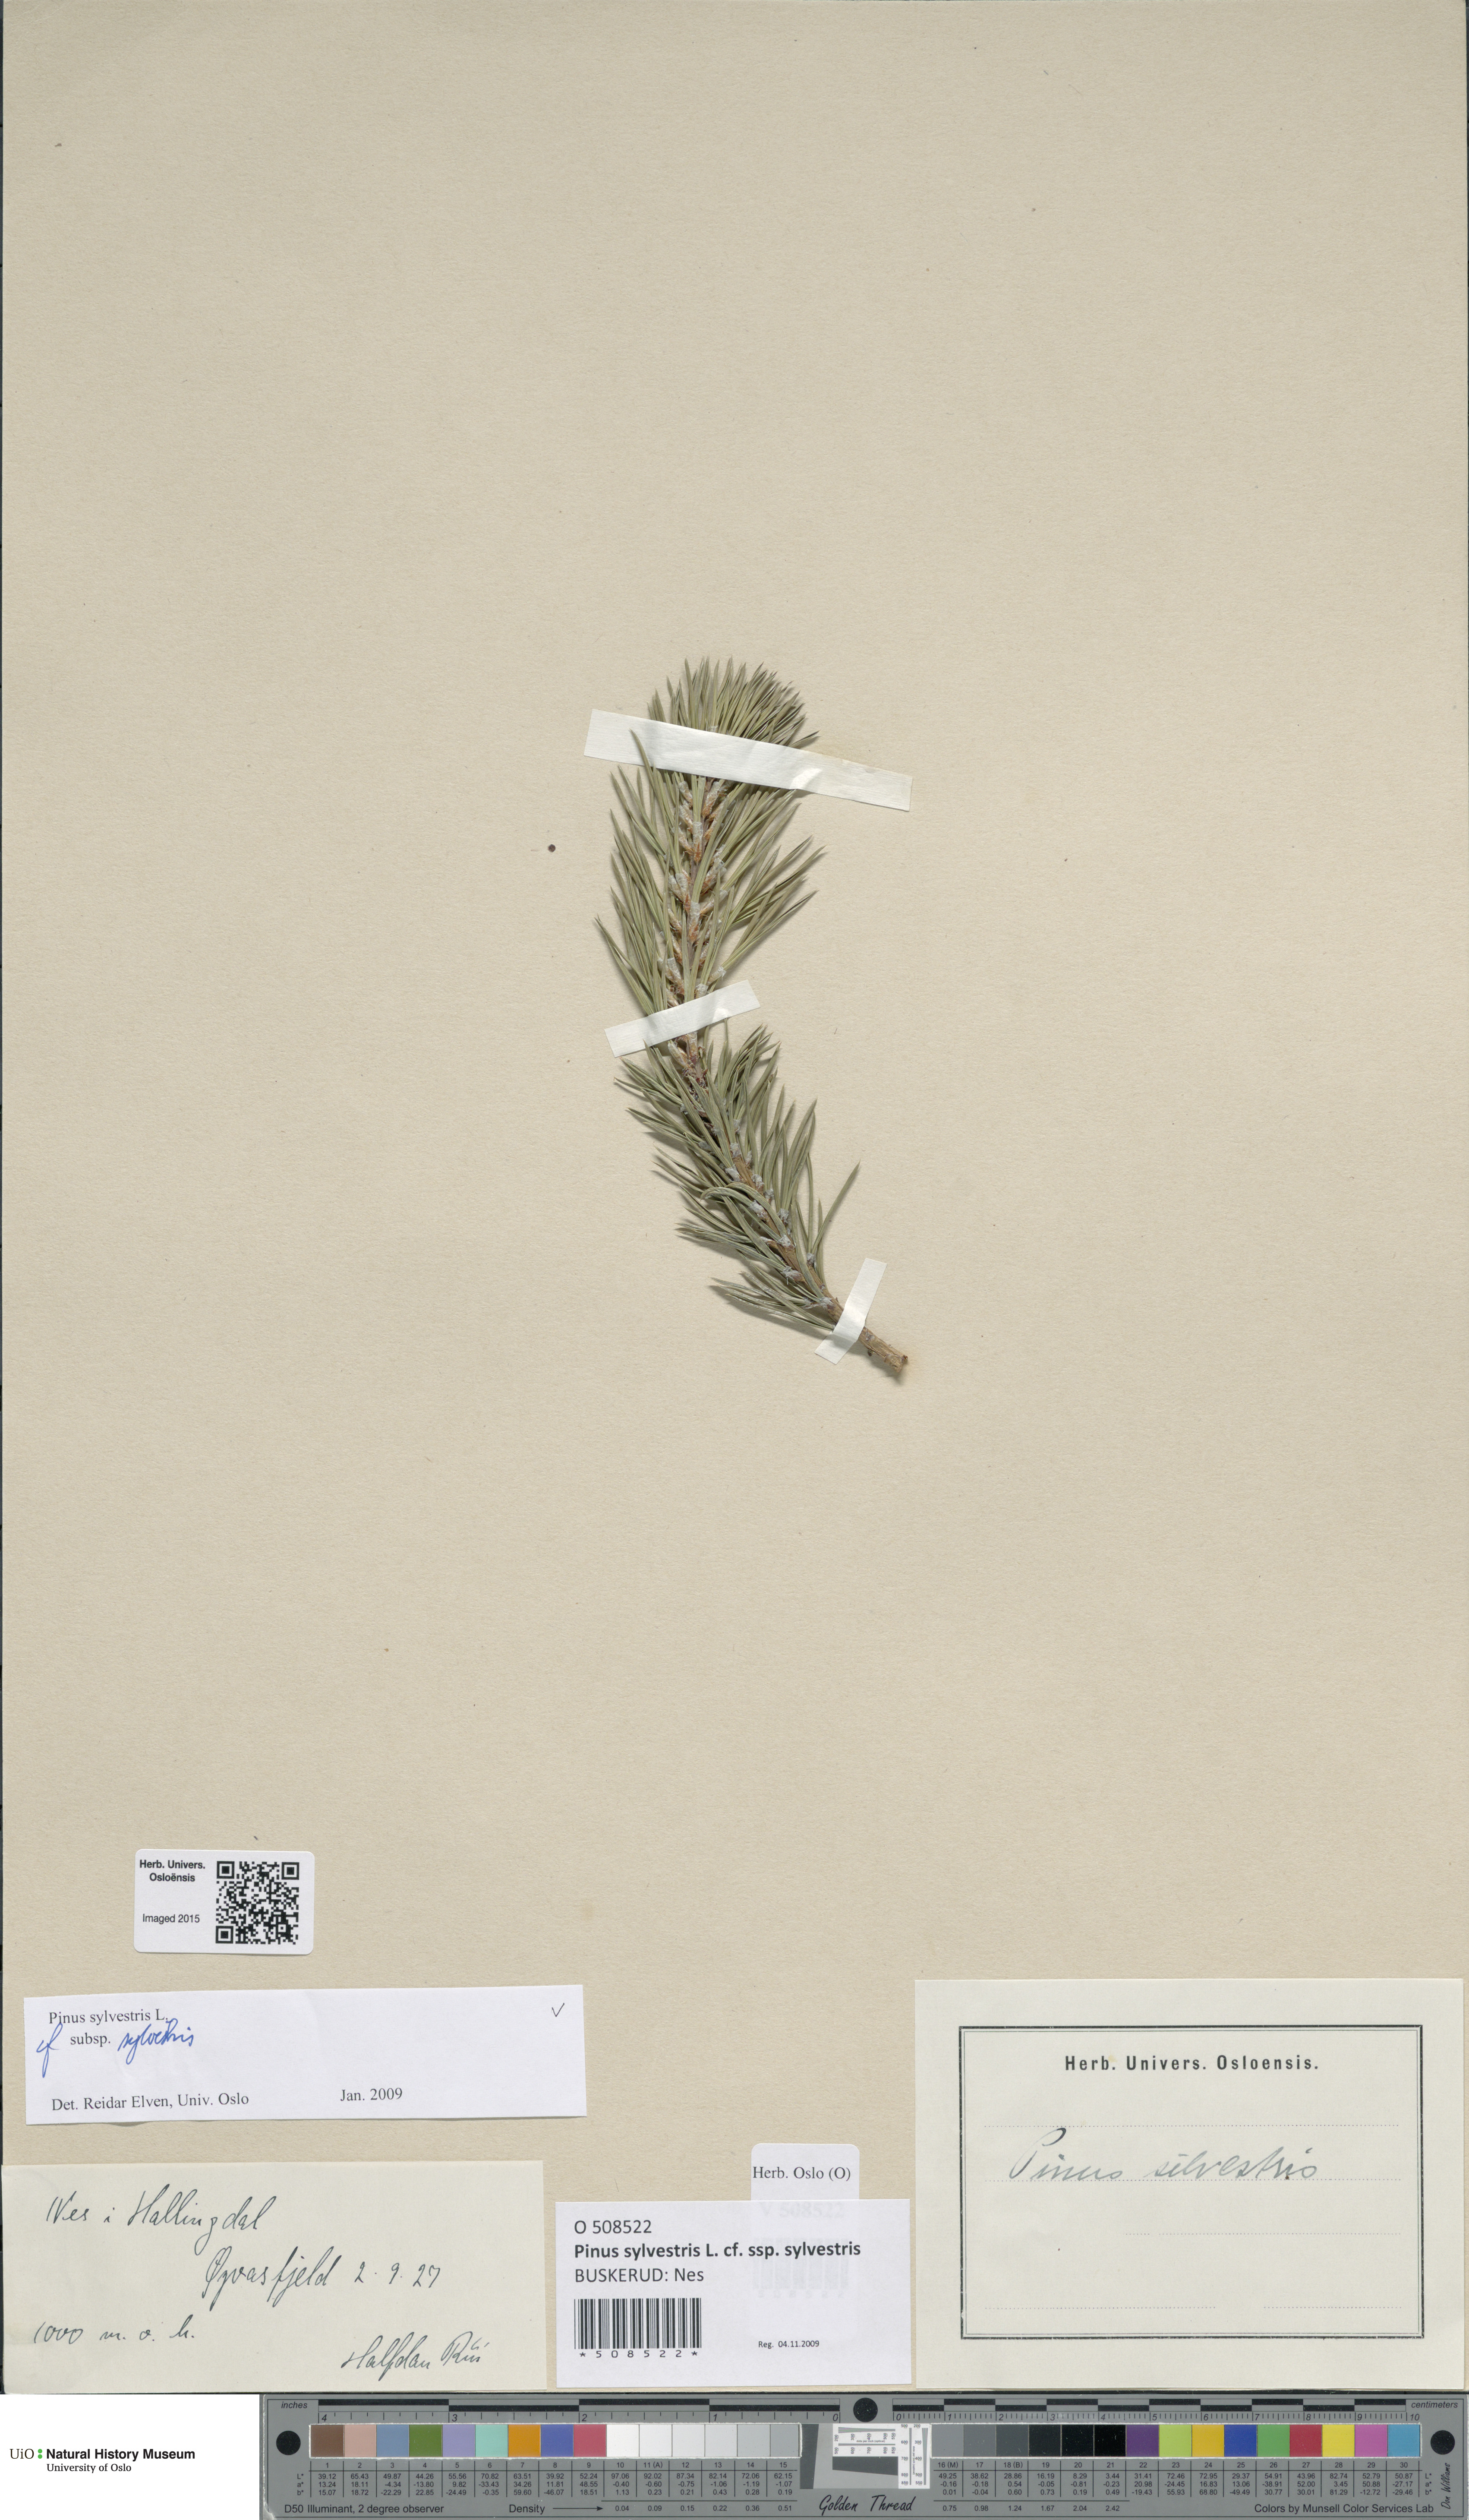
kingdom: Plantae
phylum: Tracheophyta
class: Pinopsida
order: Pinales
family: Pinaceae
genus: Pinus
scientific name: Pinus sylvestris
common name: Scots pine
